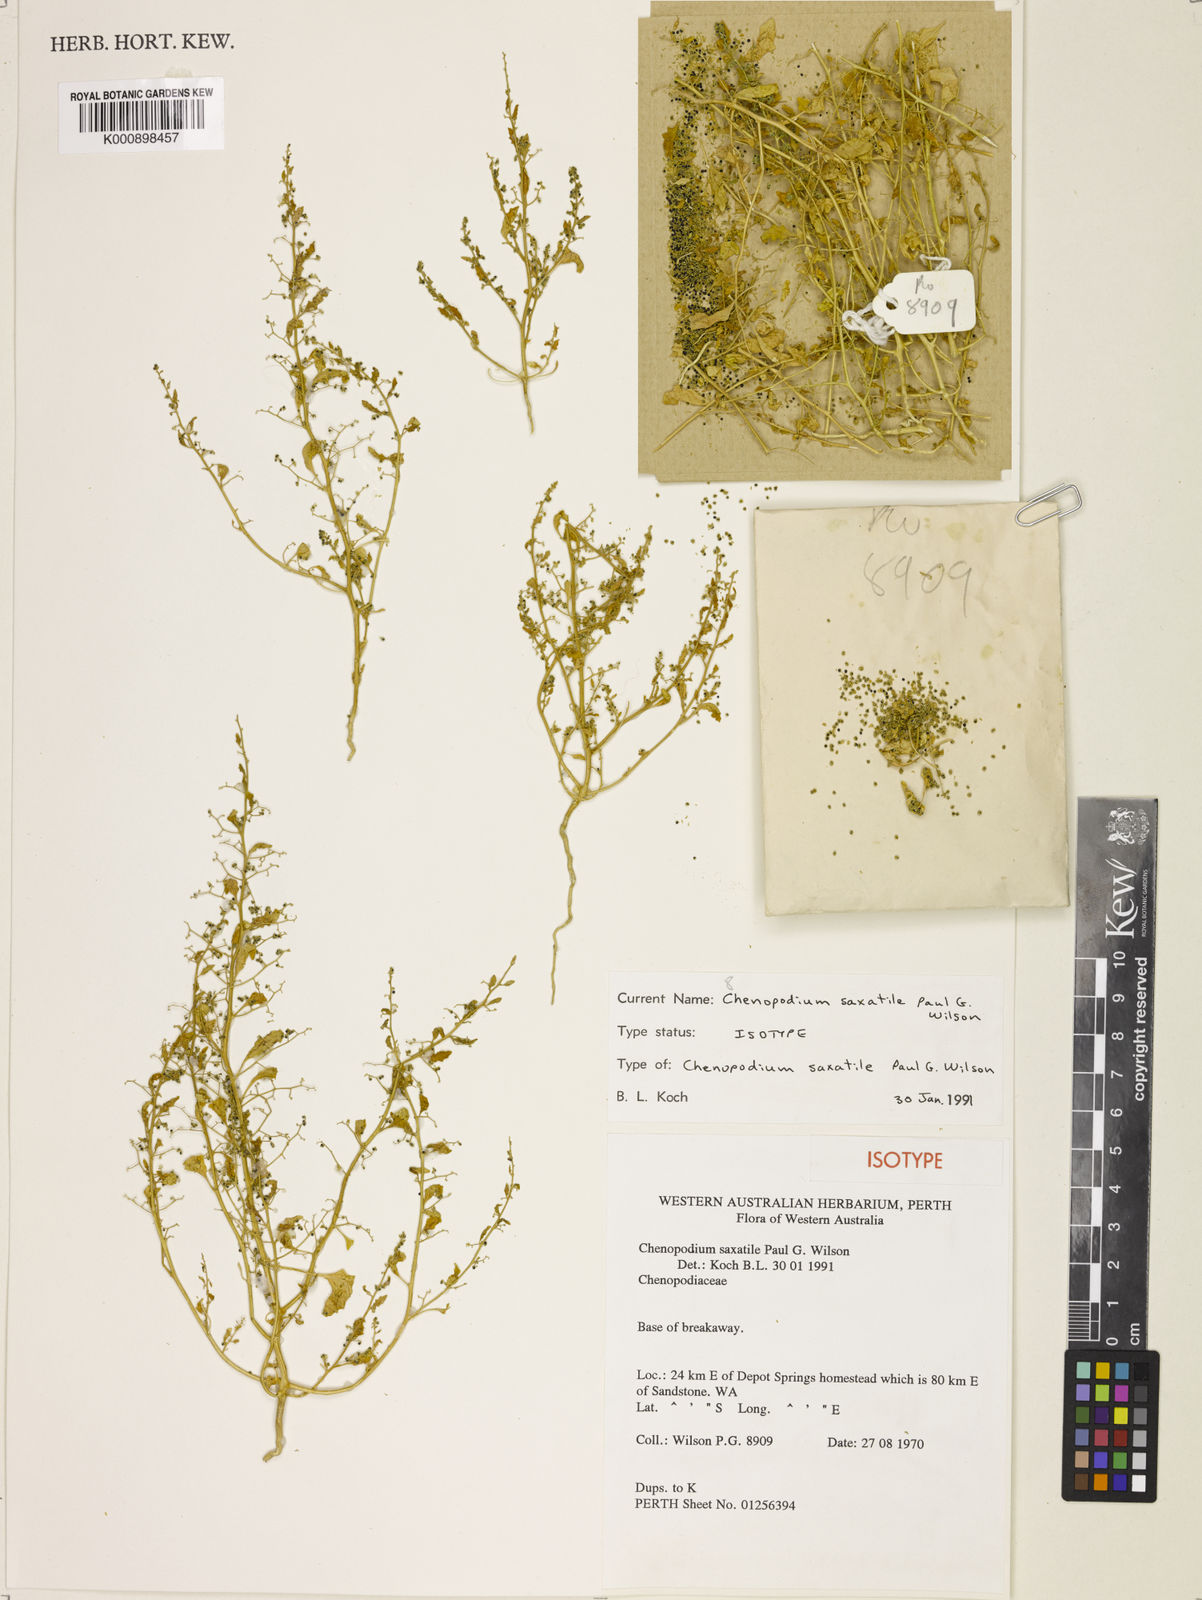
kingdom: Plantae
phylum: Tracheophyta
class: Magnoliopsida
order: Caryophyllales
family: Amaranthaceae
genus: Dysphania
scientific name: Dysphania saxatilis
